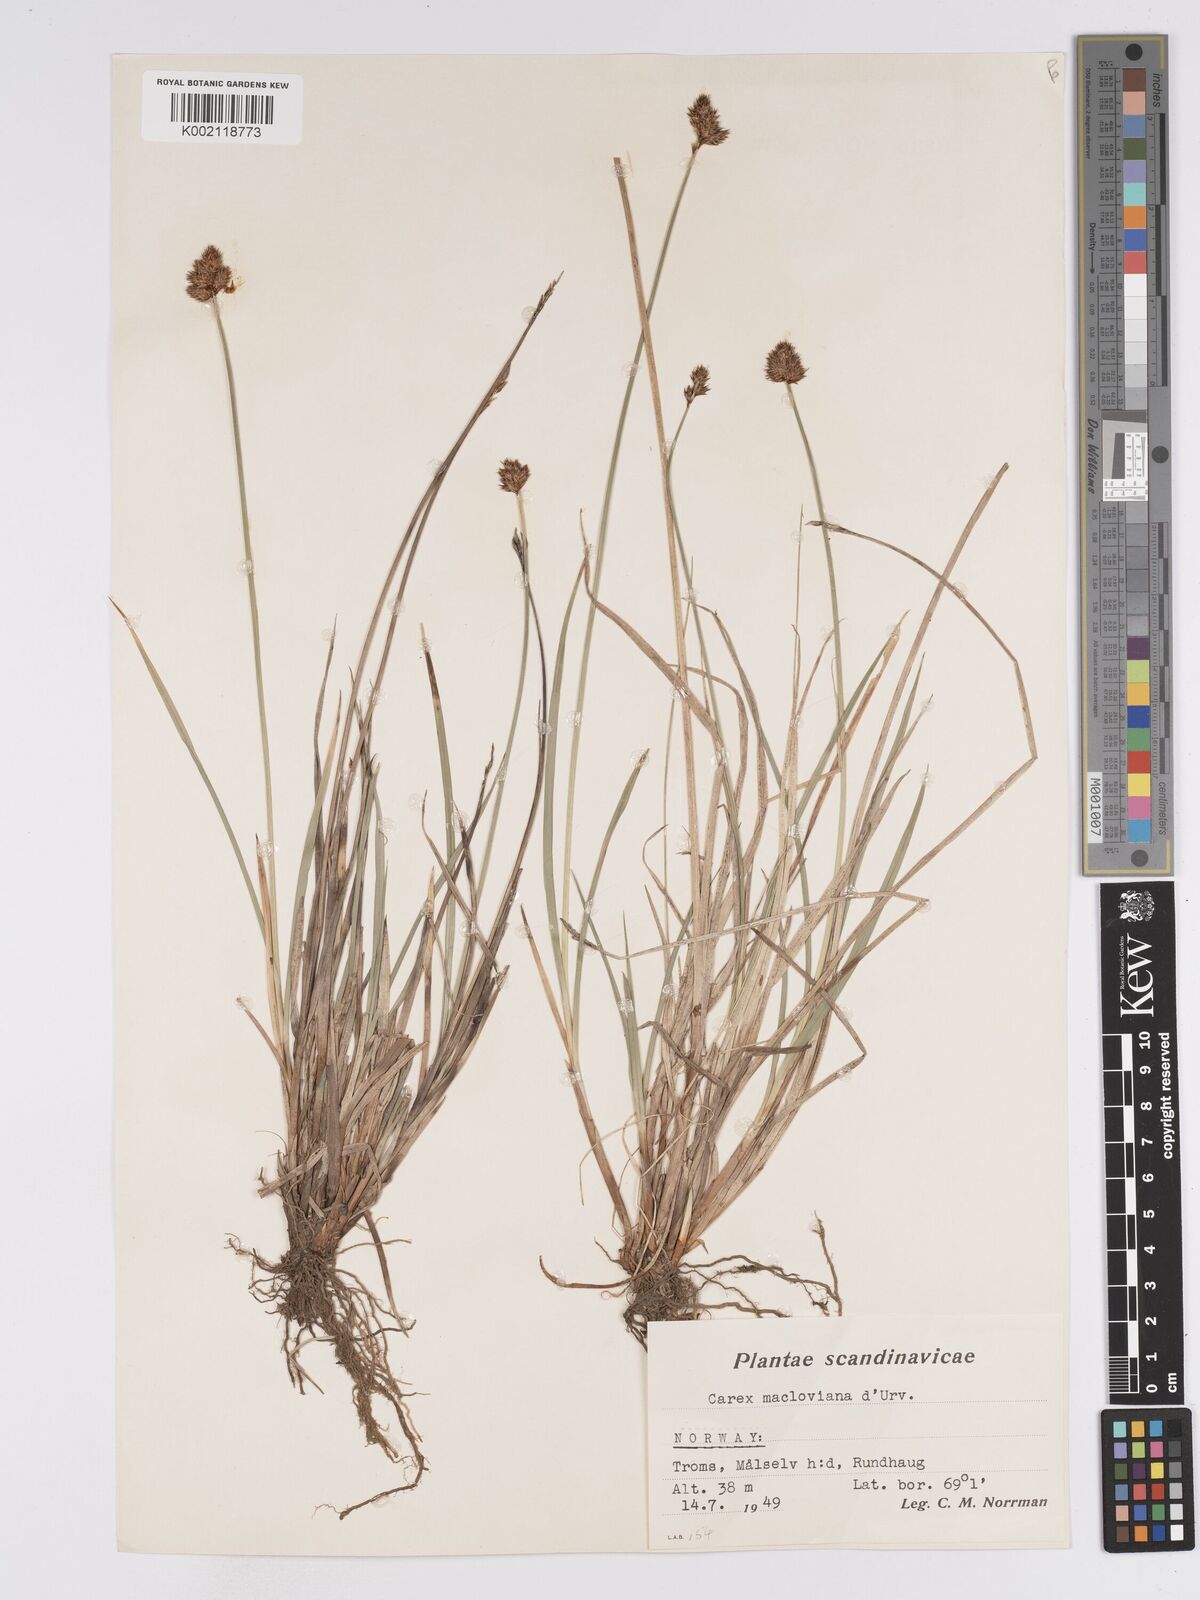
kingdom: Plantae
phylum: Tracheophyta
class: Liliopsida
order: Poales
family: Cyperaceae
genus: Carex
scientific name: Carex macloviana
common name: Falkland island sedge
